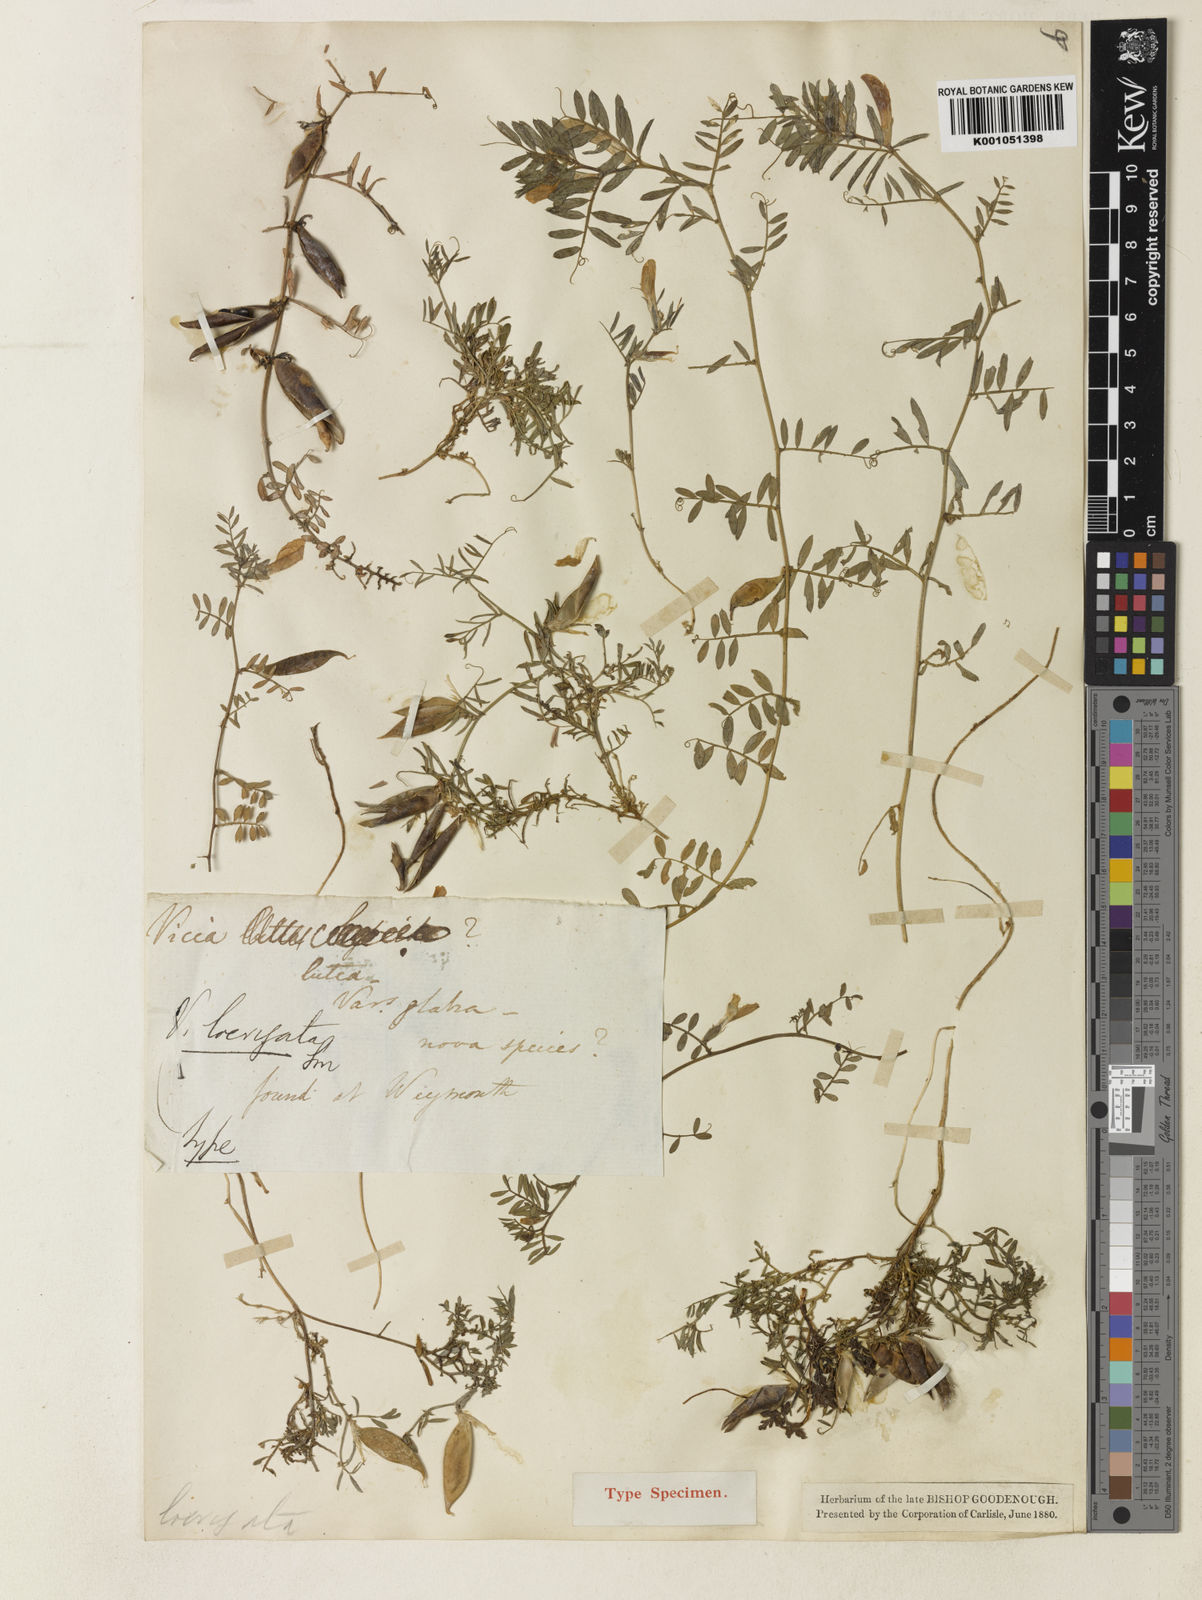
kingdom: Plantae
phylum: Tracheophyta
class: Magnoliopsida
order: Fabales
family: Fabaceae
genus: Vicia
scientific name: Vicia lutea
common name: Smooth yellow vetch
